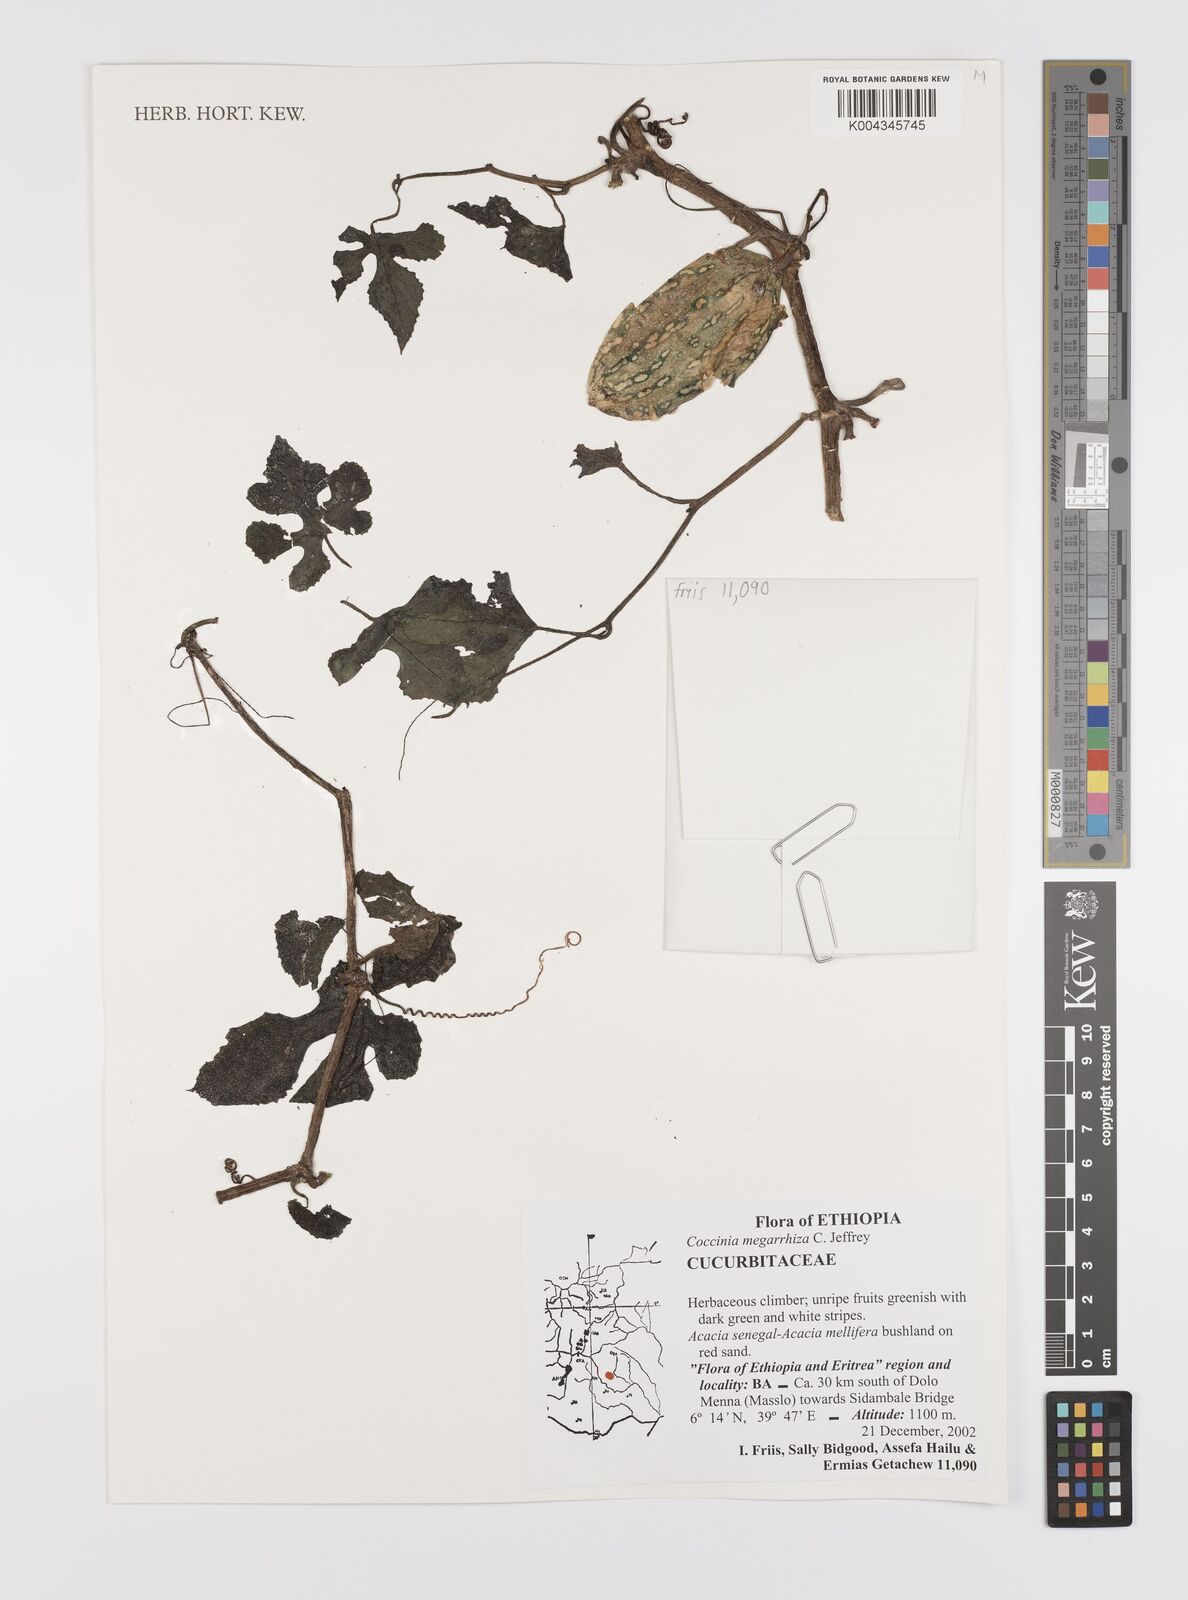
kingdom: Plantae
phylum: Tracheophyta
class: Magnoliopsida
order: Cucurbitales
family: Cucurbitaceae
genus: Coccinia
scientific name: Coccinia megarrhiza
